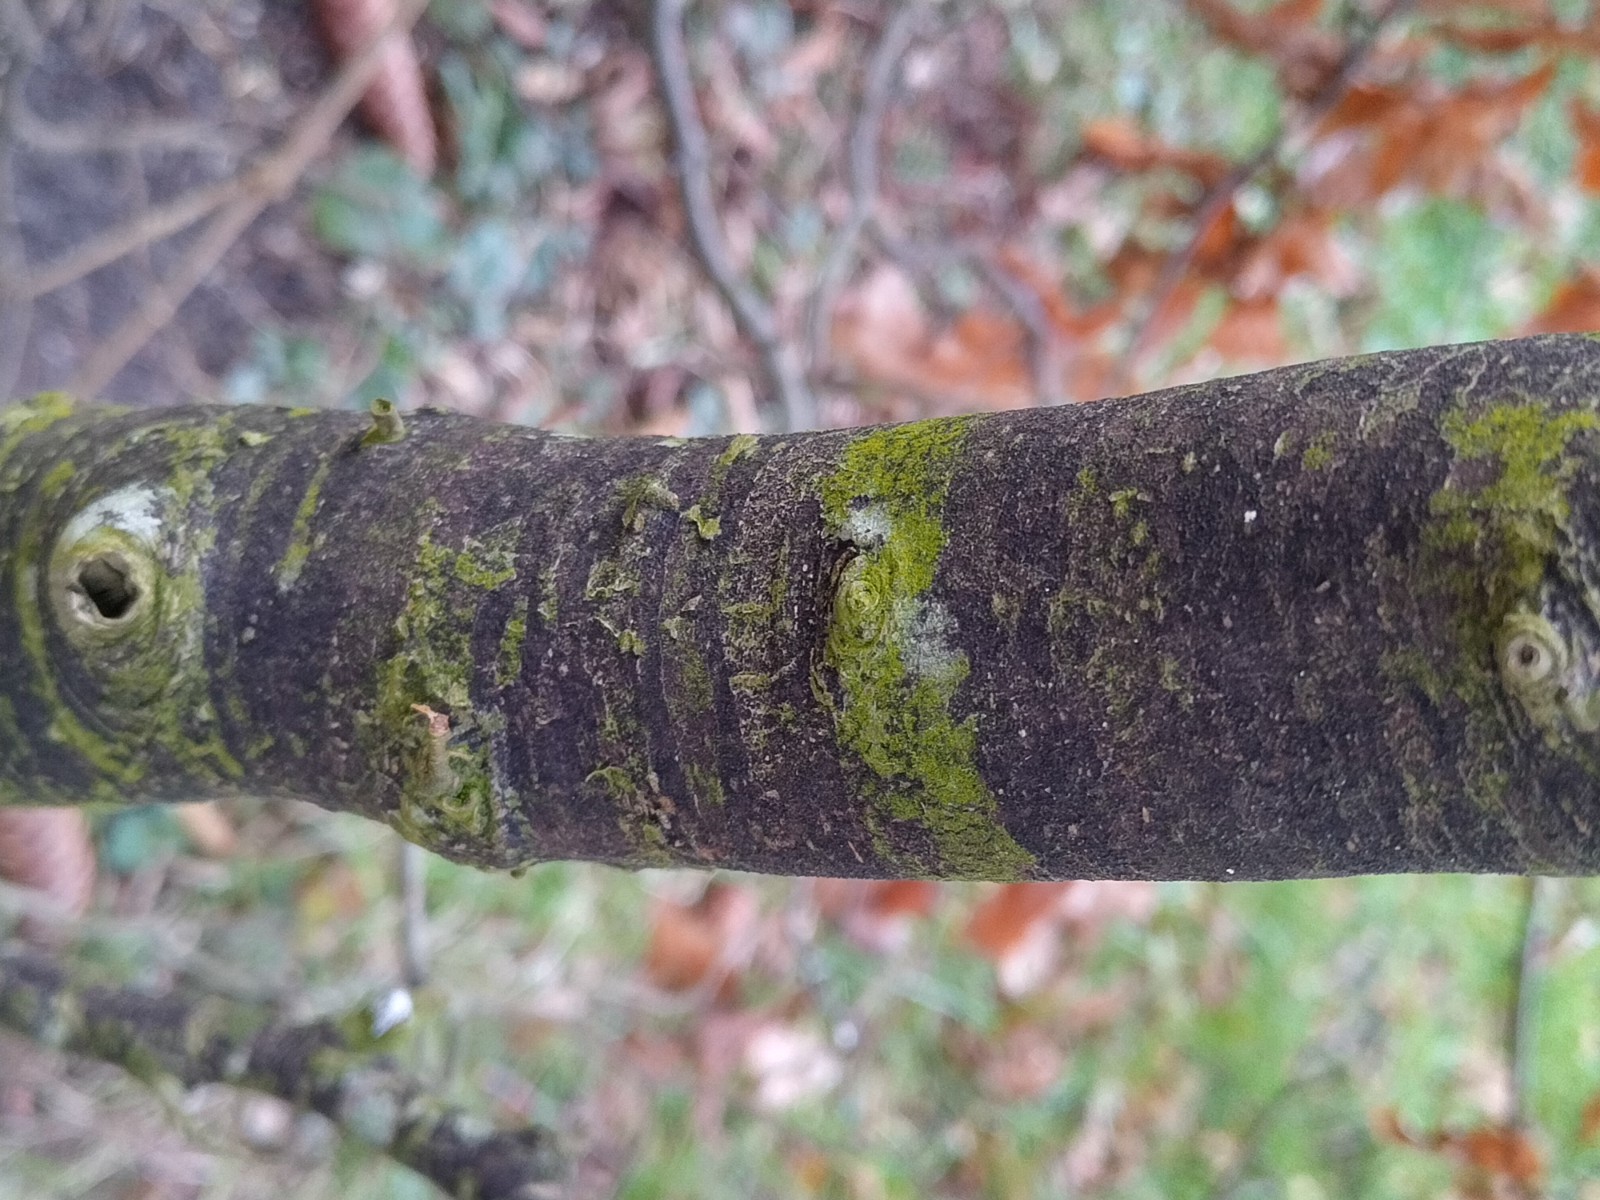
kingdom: Fungi
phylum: Ascomycota
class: Leotiomycetes
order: Rhytismatales
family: Ascodichaenaceae
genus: Ascodichaena
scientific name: Ascodichaena rugosa
